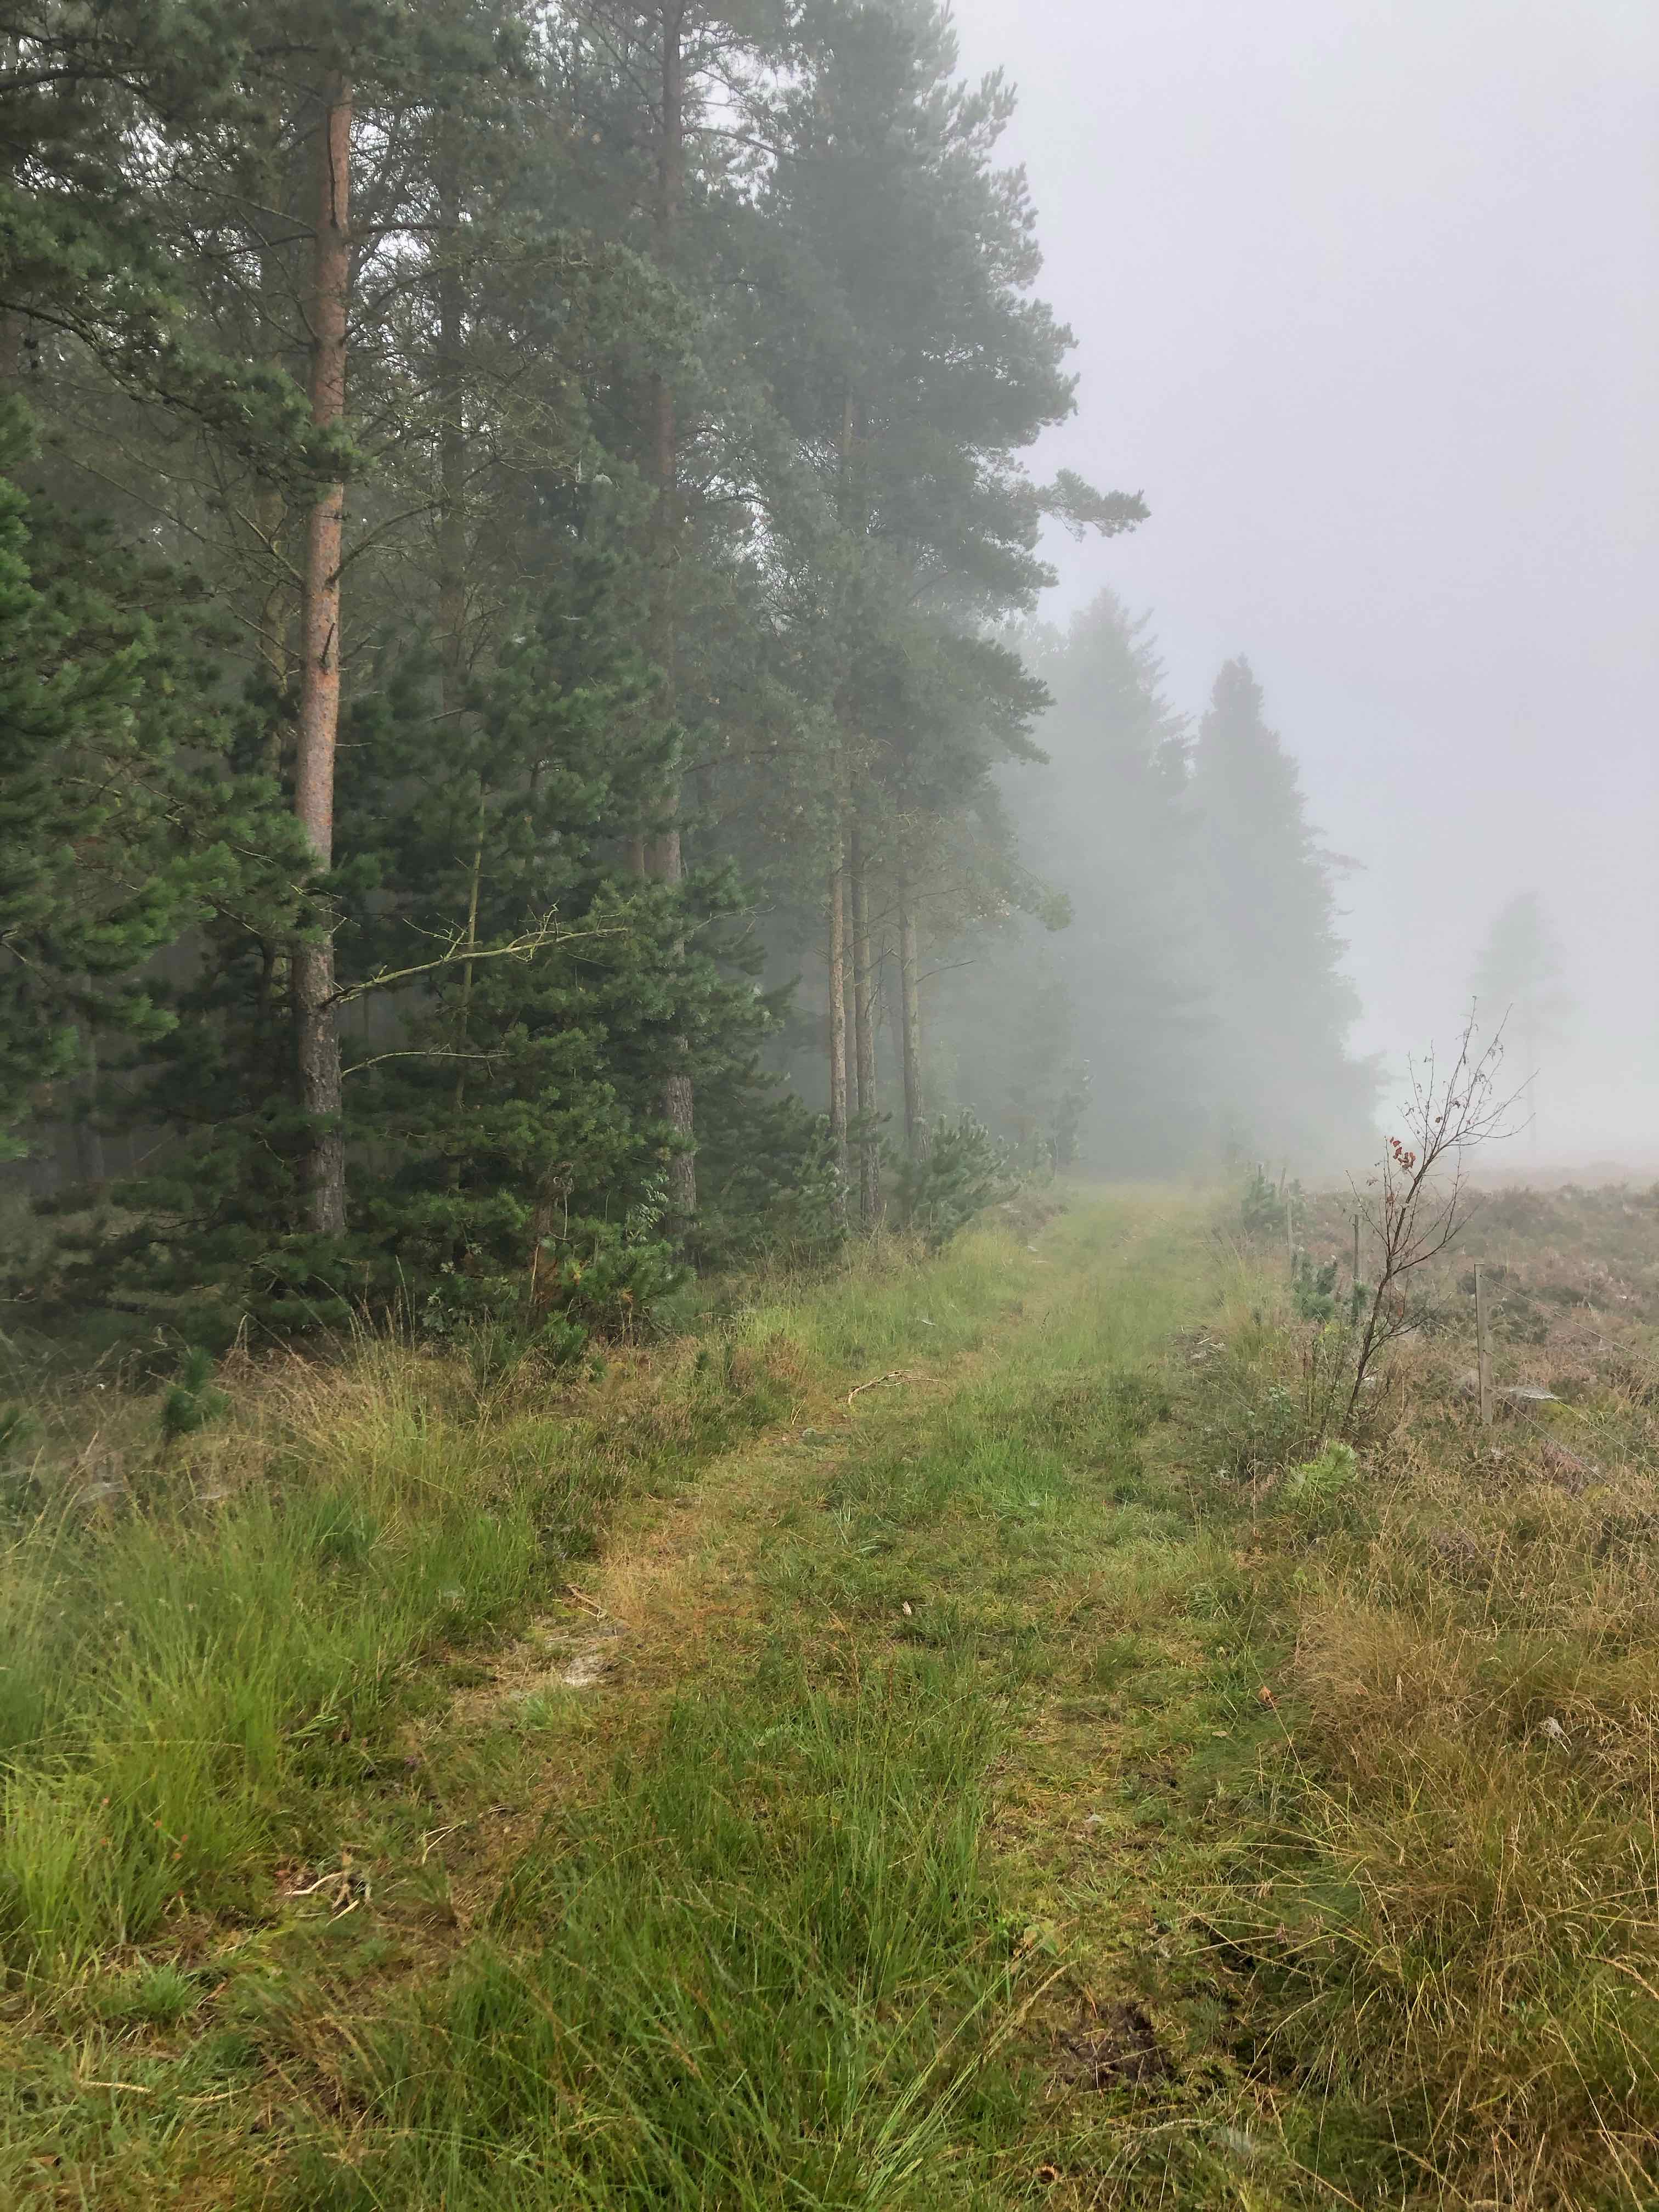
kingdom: Fungi
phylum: Basidiomycota
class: Agaricomycetes
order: Russulales
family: Russulaceae
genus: Lactarius
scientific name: Lactarius
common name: mælkehat
